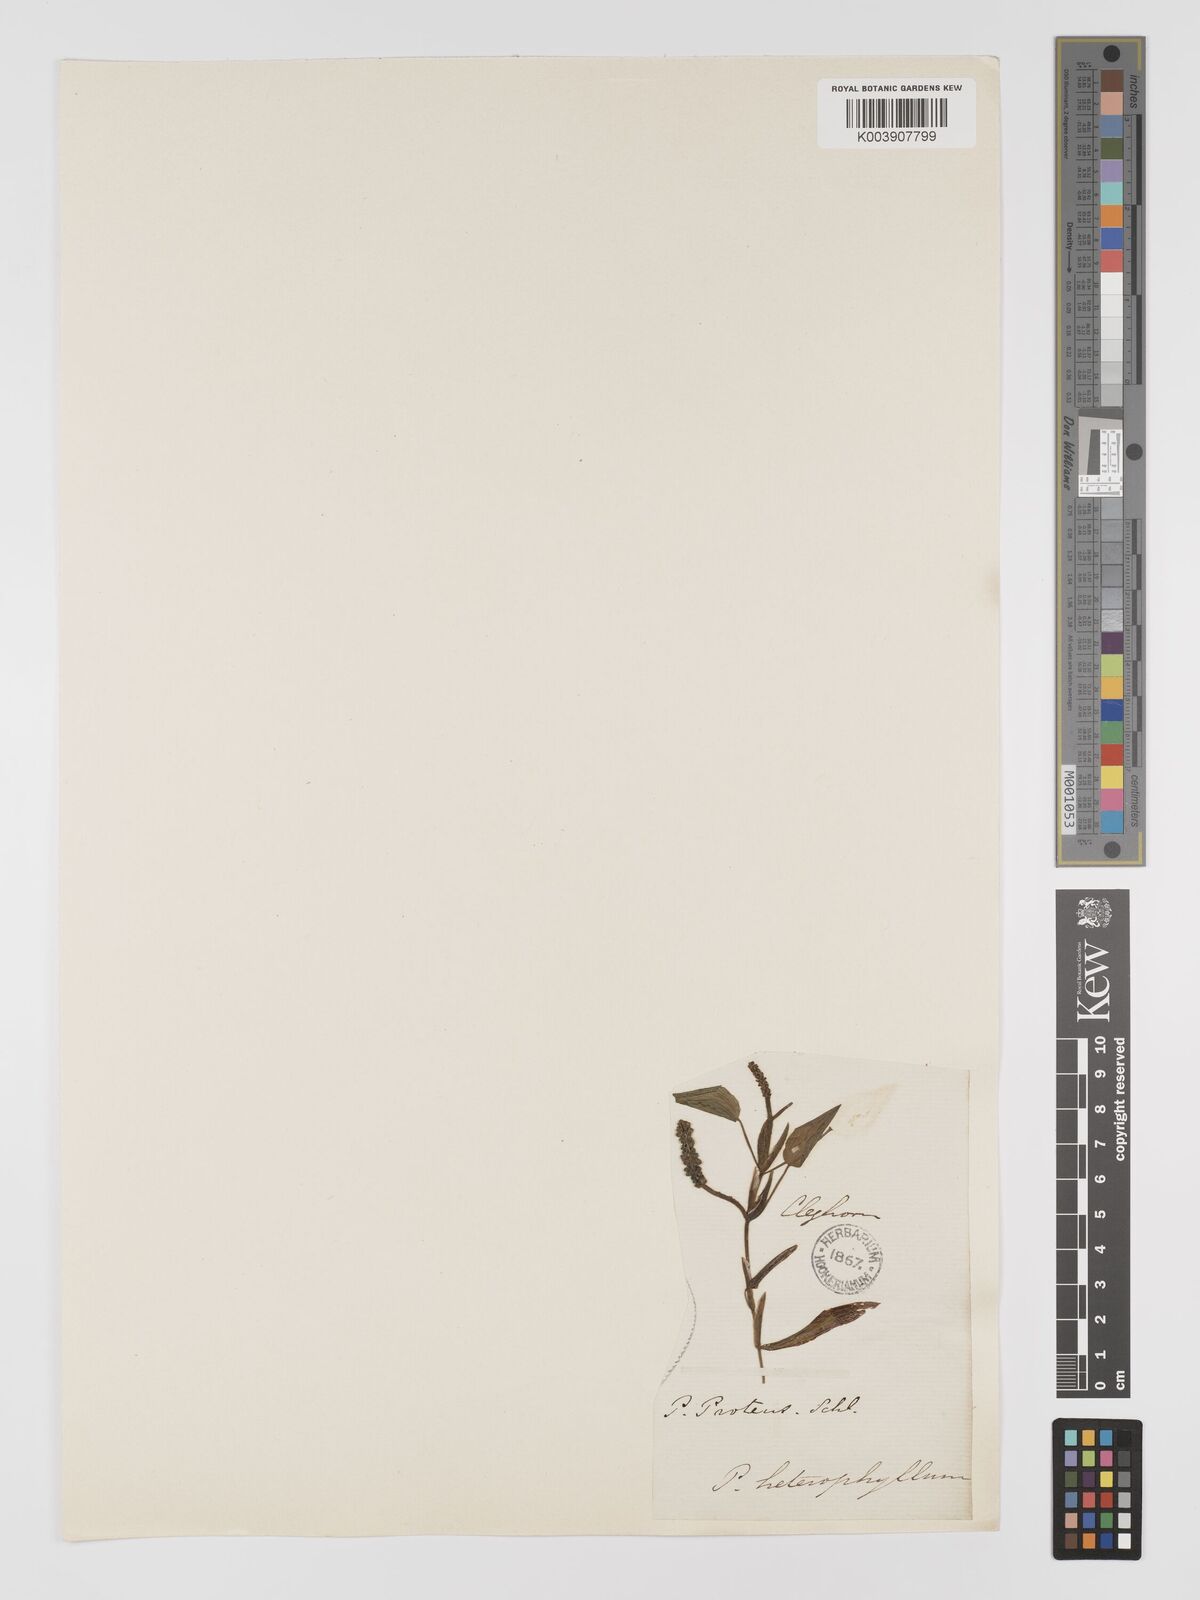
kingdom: Plantae
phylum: Tracheophyta
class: Liliopsida
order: Alismatales
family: Potamogetonaceae
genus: Potamogeton
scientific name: Potamogeton gramineus
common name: Various-leaved pondweed
